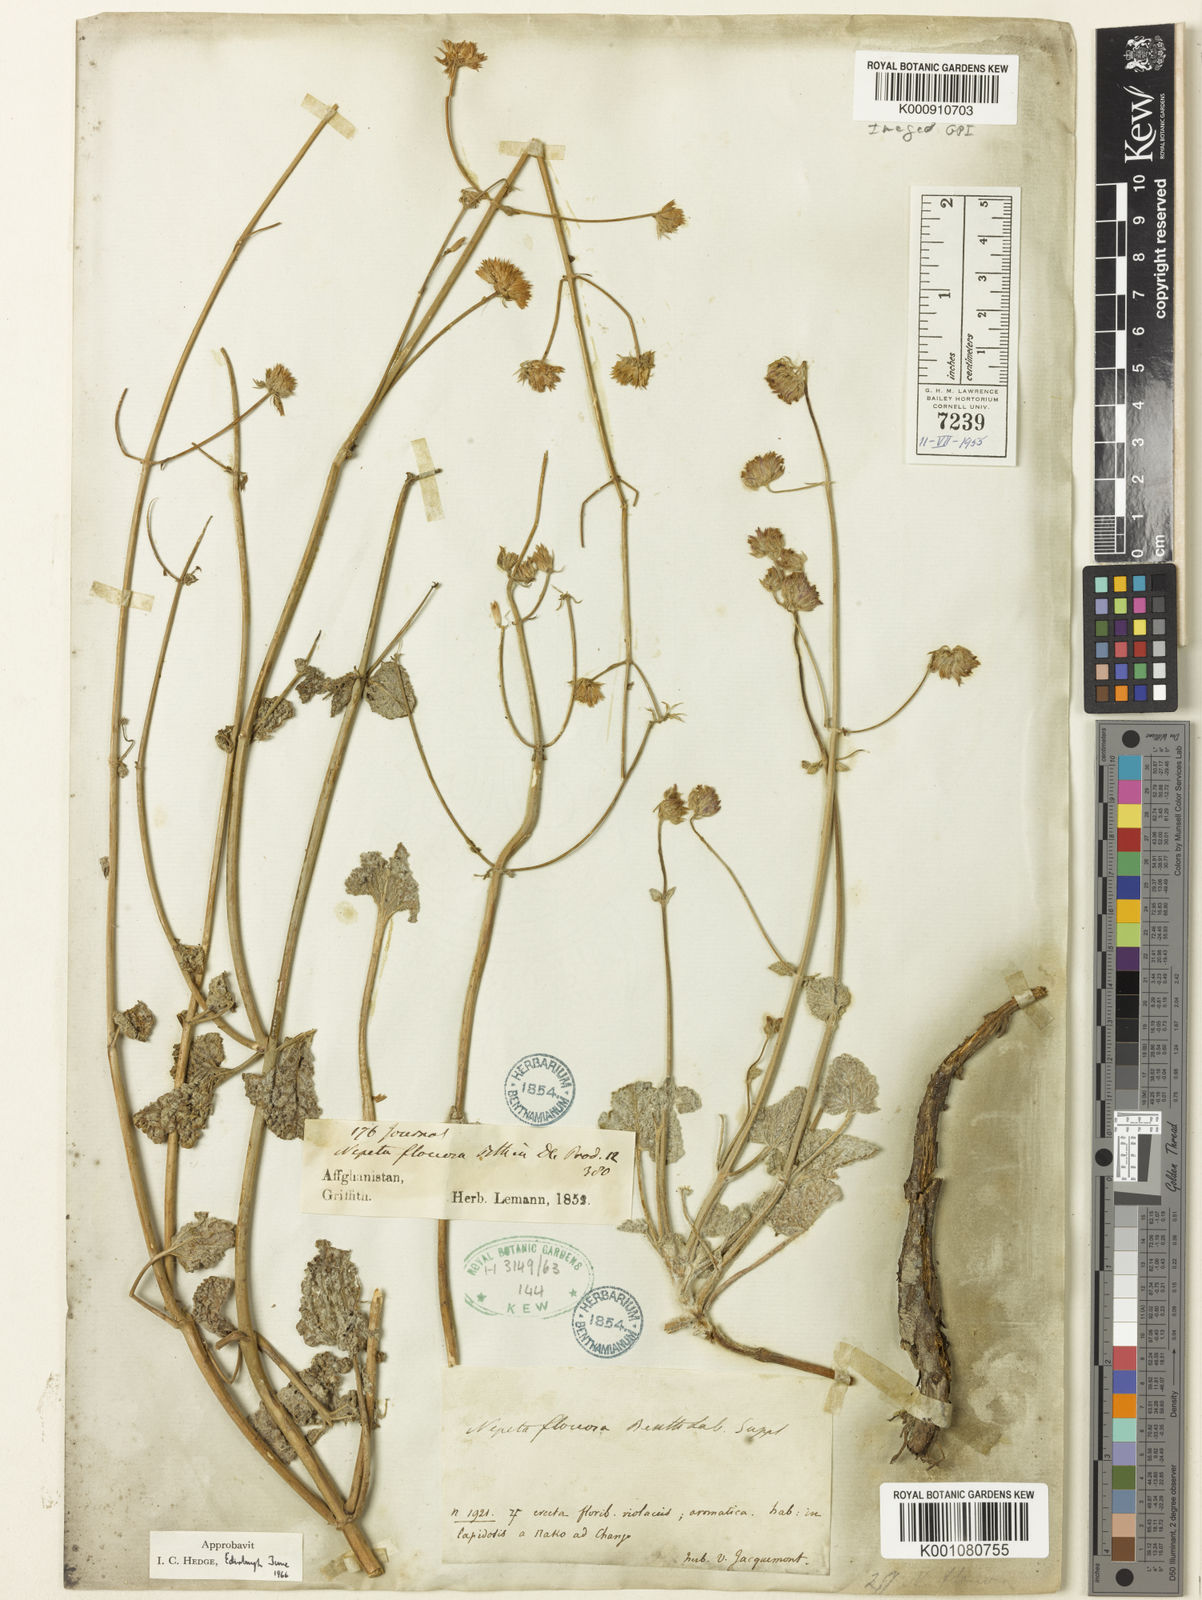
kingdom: Plantae
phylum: Tracheophyta
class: Magnoliopsida
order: Lamiales
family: Lamiaceae
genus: Nepeta
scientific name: Nepeta floccosa
